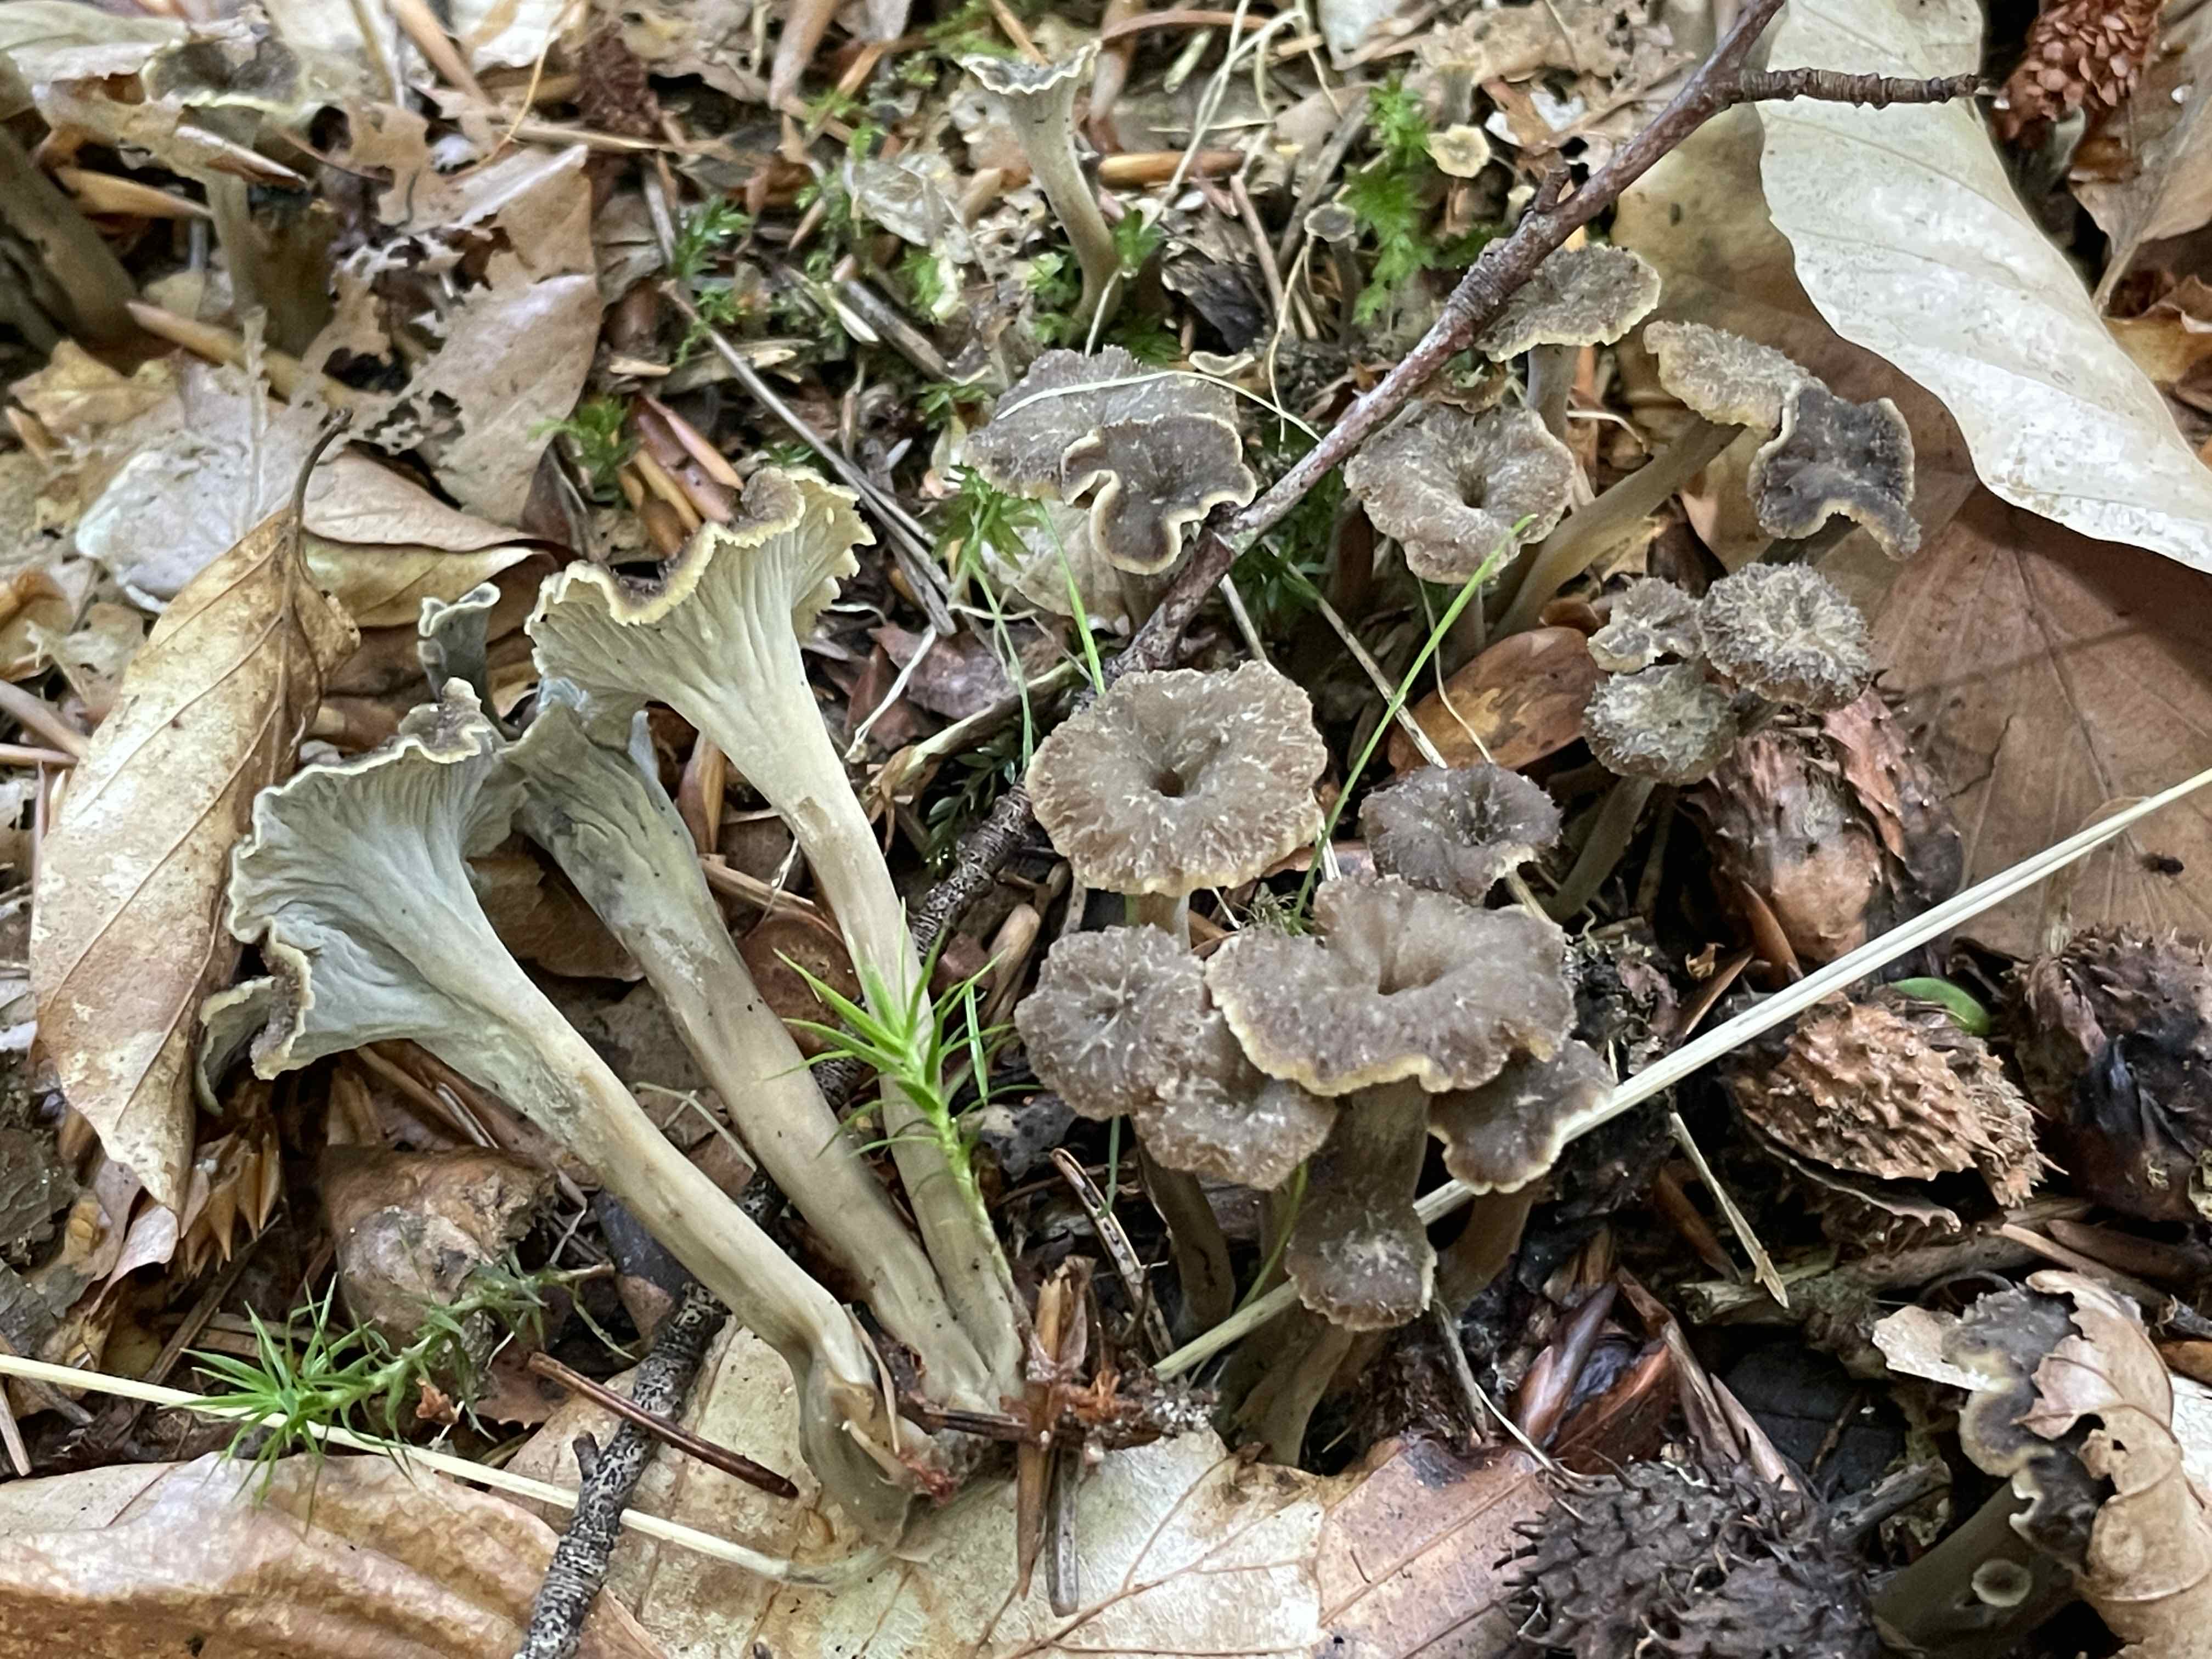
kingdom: Fungi
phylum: Basidiomycota
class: Agaricomycetes
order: Cantharellales
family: Hydnaceae
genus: Craterellus
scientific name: Craterellus undulatus
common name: liden kantarel
